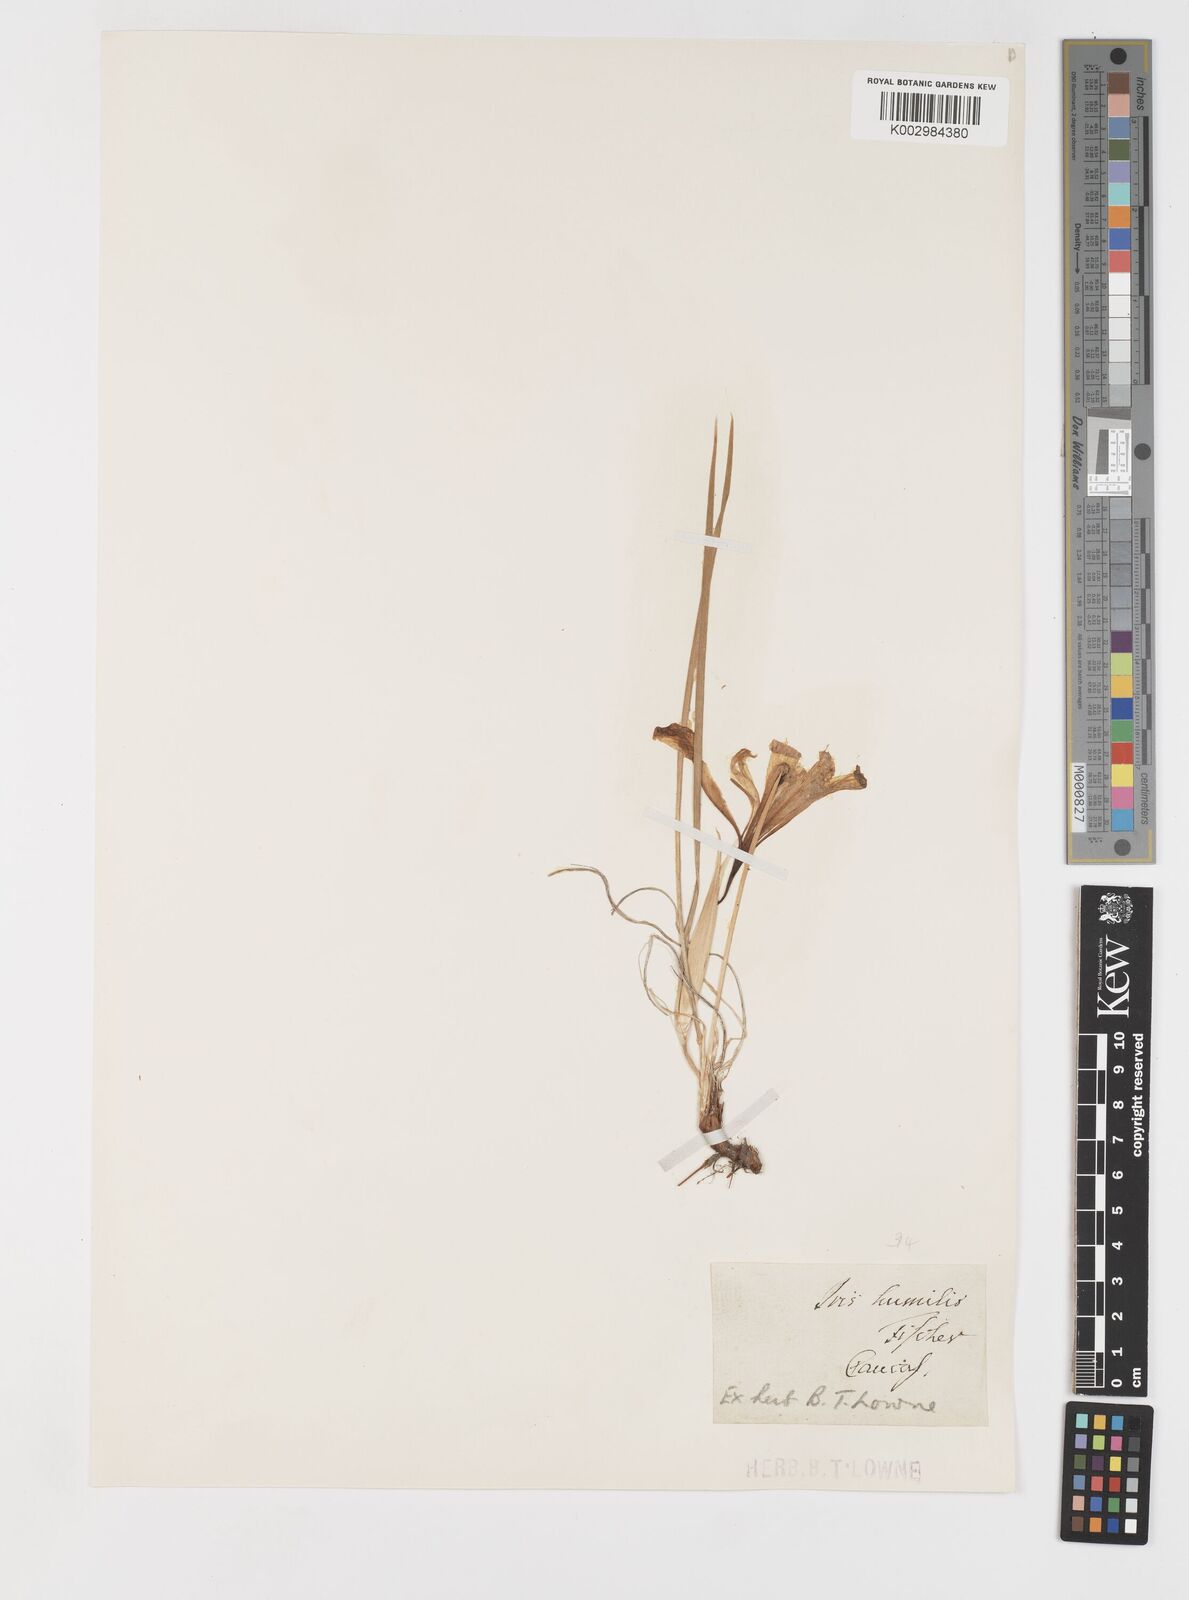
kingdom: Plantae
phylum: Tracheophyta
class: Liliopsida
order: Asparagales
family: Iridaceae
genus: Iris
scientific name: Iris pontica
